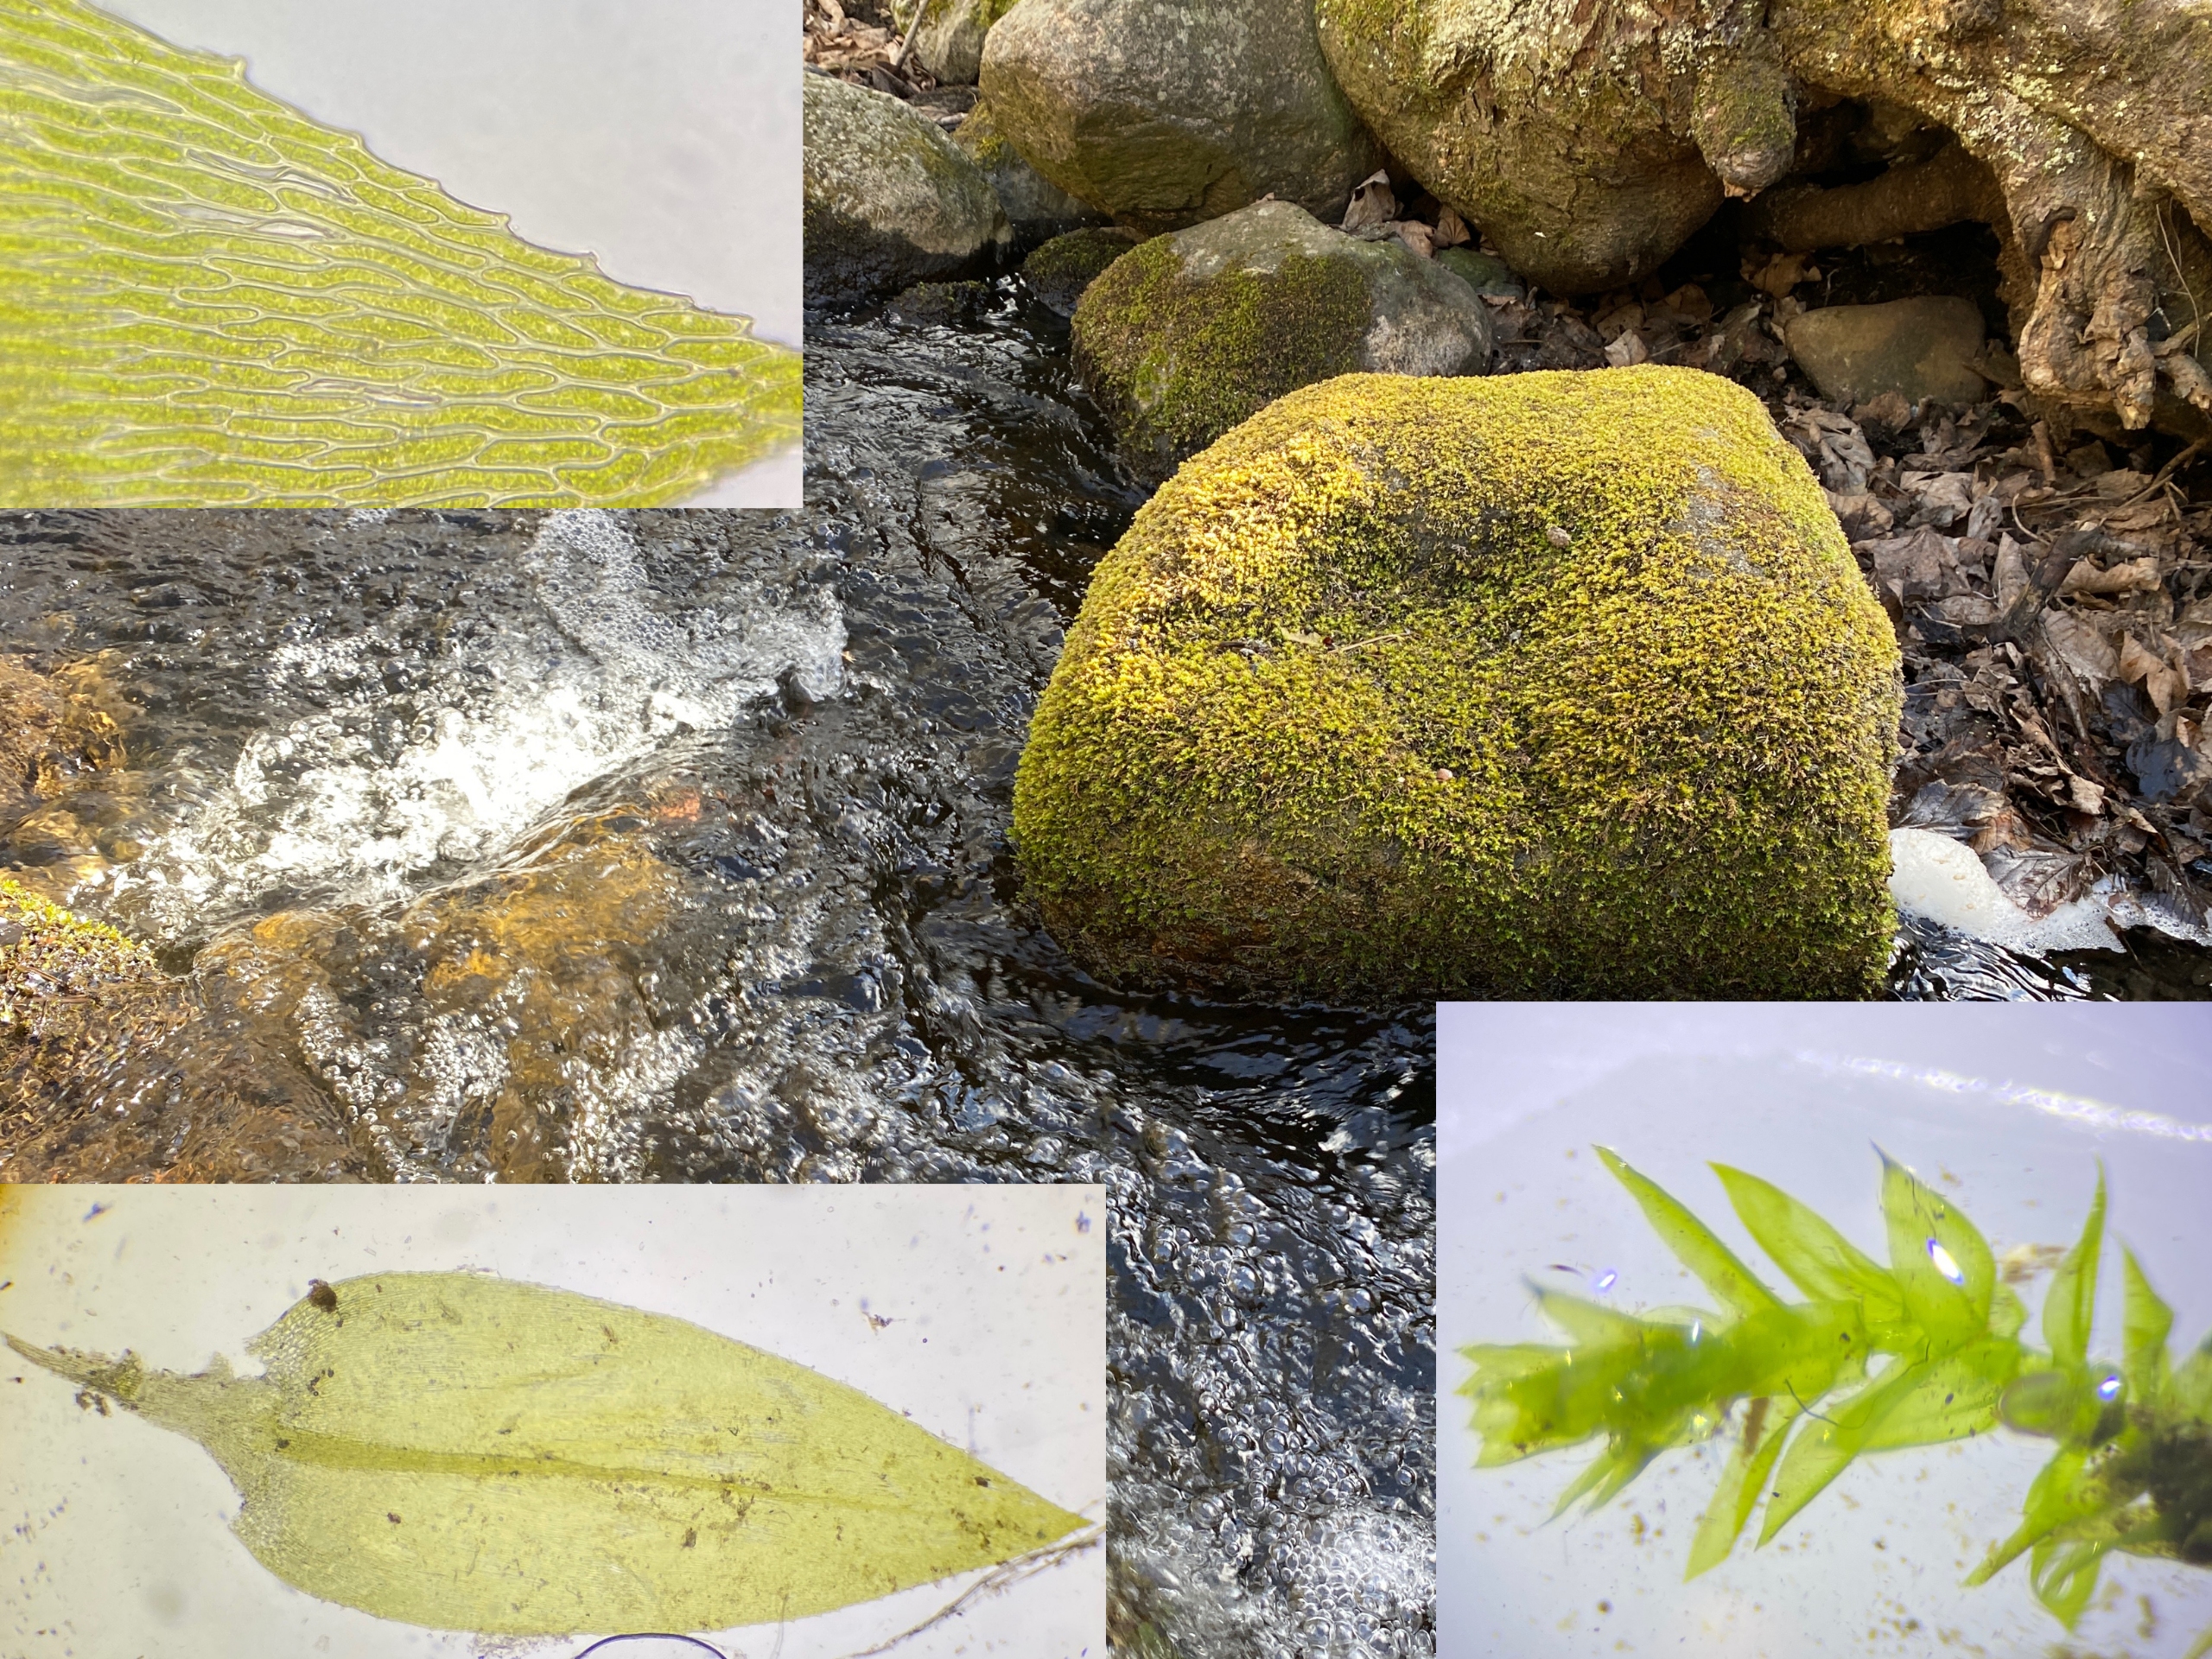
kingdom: Plantae
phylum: Bryophyta
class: Bryopsida
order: Hypnales
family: Brachytheciaceae
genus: Rhynchostegium
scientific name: Rhynchostegium riparioides
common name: Robust strømmos
